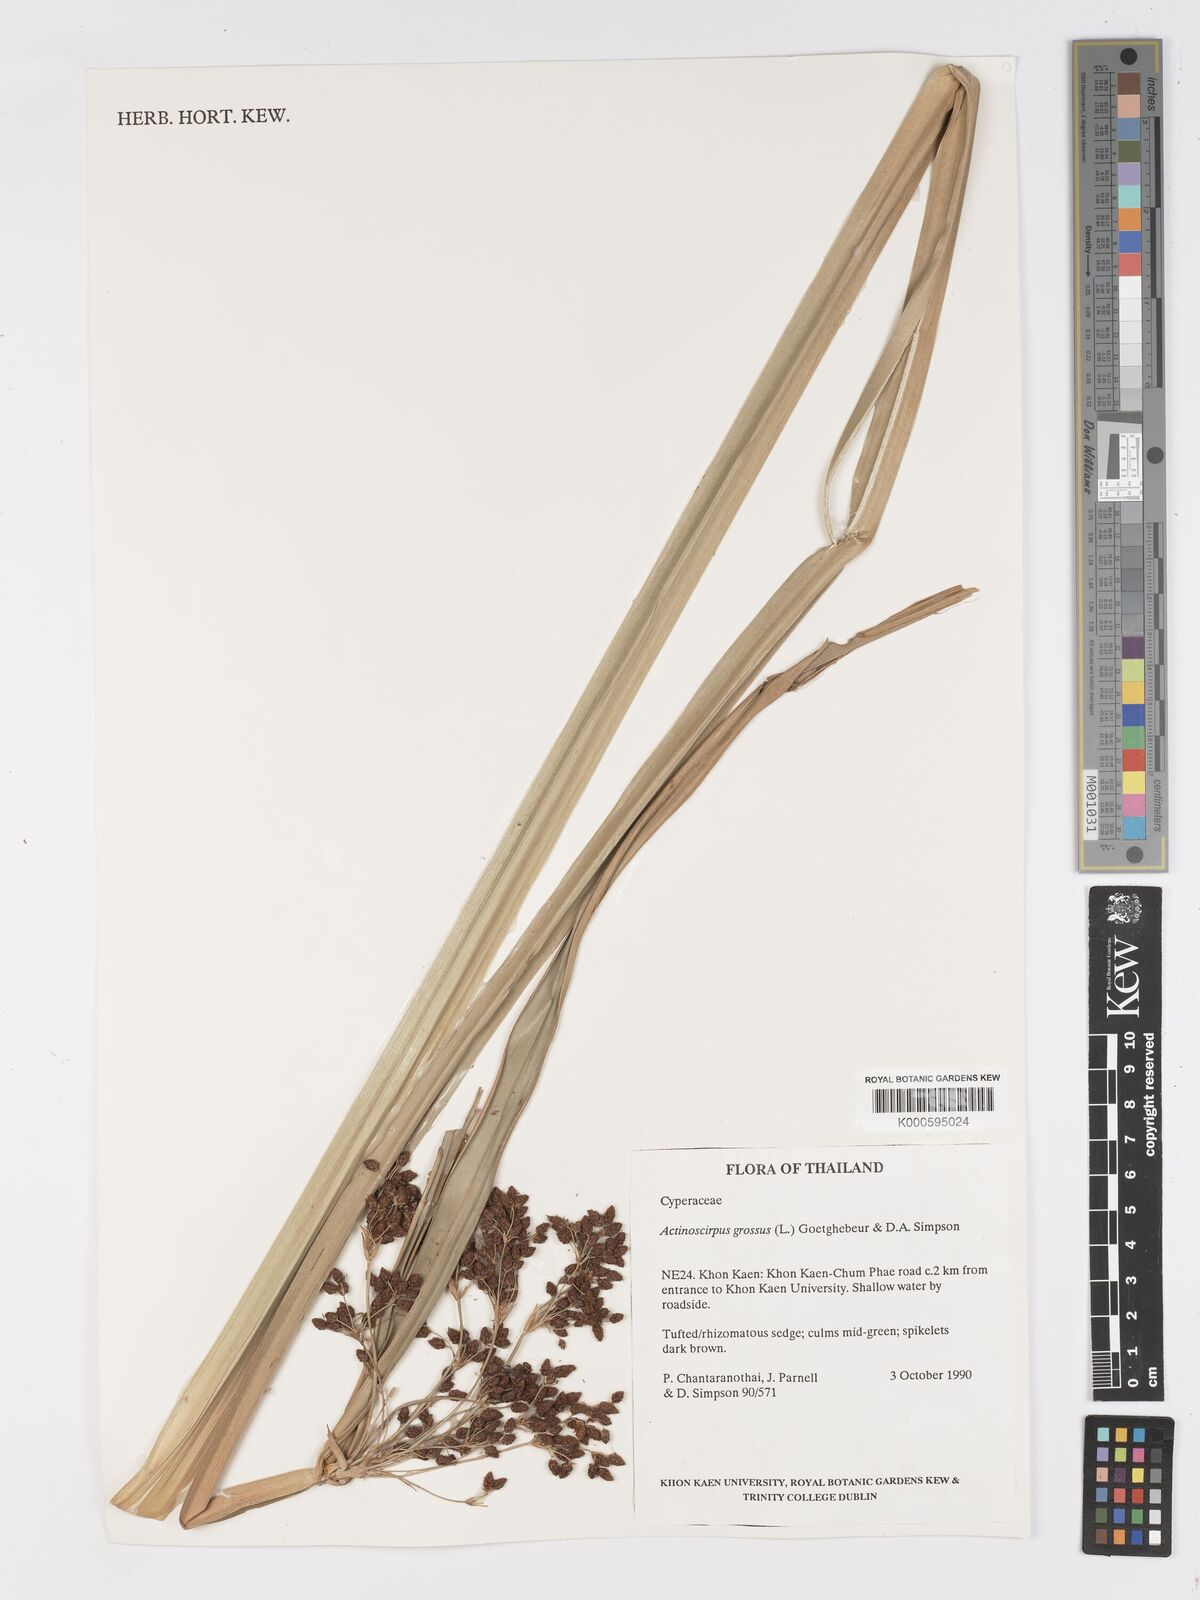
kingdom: Plantae
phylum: Tracheophyta
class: Liliopsida
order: Poales
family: Cyperaceae
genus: Actinoscirpus
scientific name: Actinoscirpus grossus
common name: Giant bur rush
